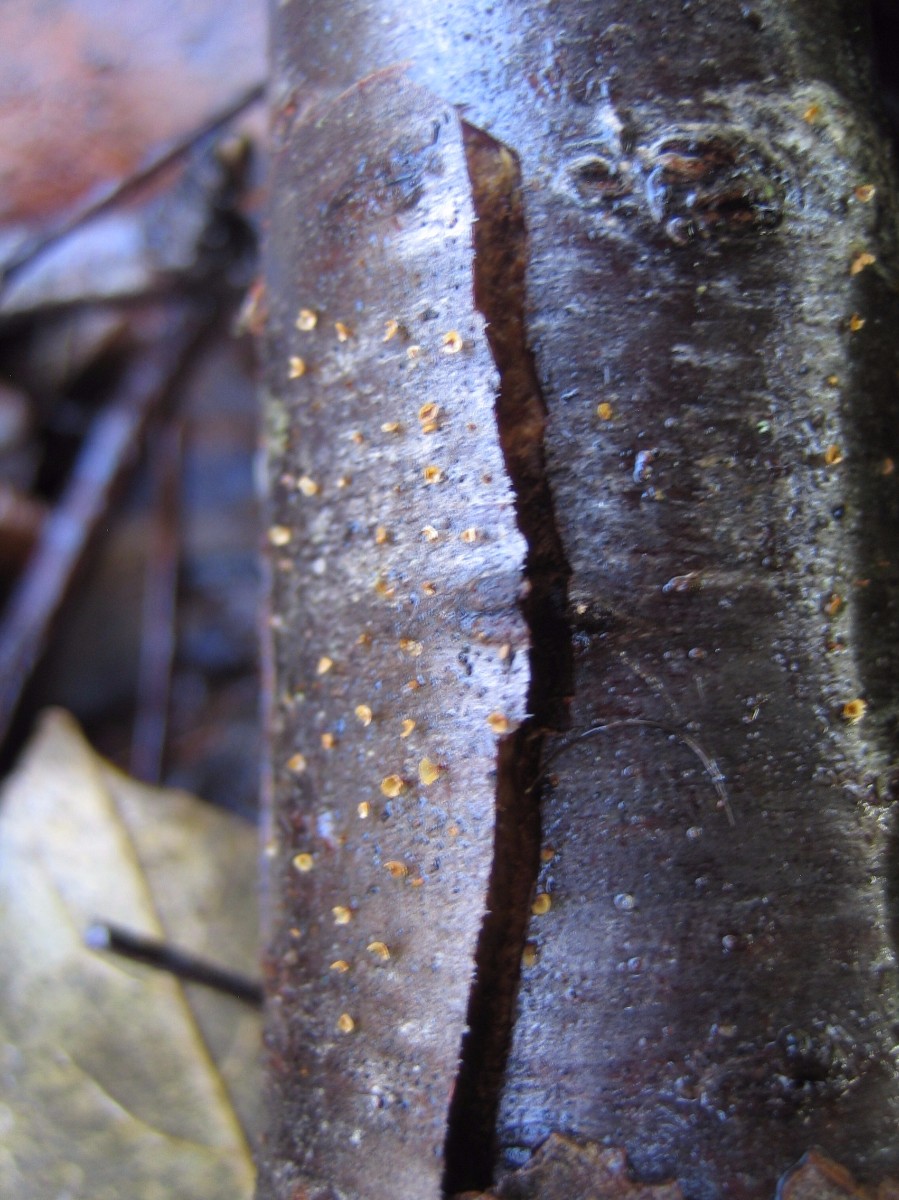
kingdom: Fungi
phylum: Ascomycota
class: Leotiomycetes
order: Helotiales
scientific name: Helotiales
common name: stilkskiveordenen
